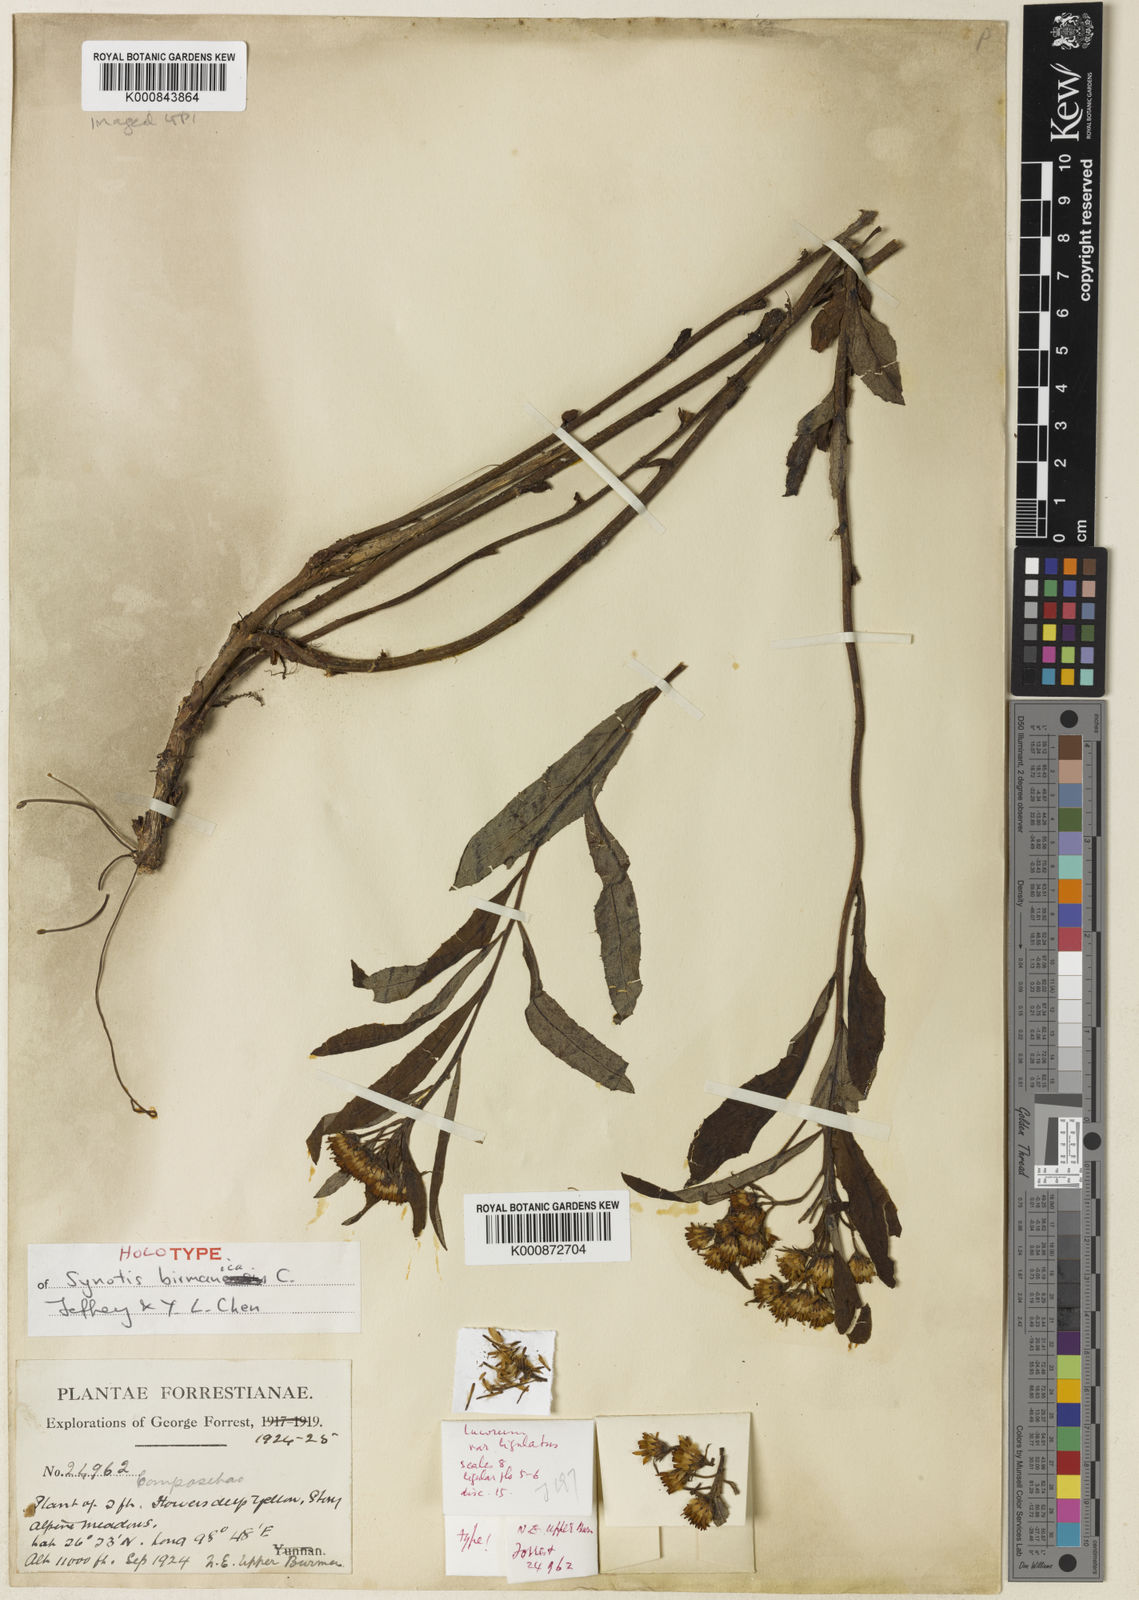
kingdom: Plantae
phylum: Tracheophyta
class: Magnoliopsida
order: Asterales
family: Asteraceae
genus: Synotis
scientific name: Synotis birmanica
